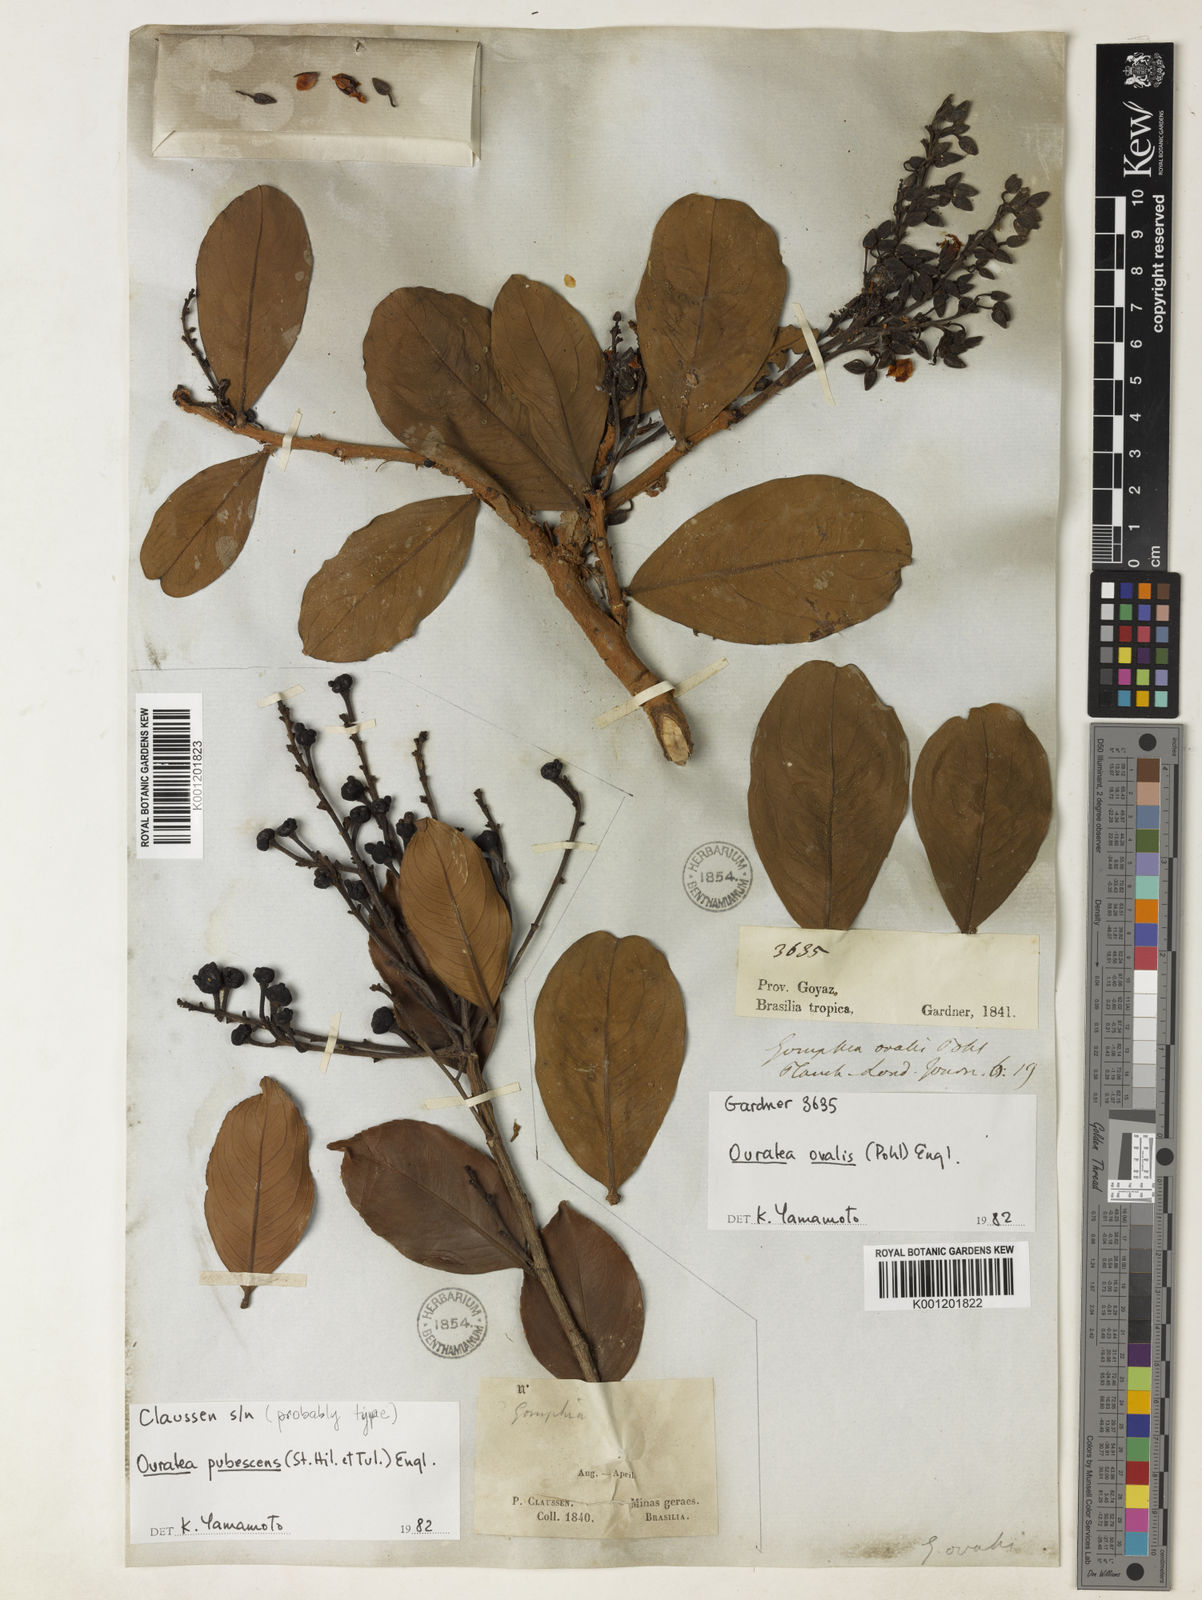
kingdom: Plantae
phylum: Tracheophyta
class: Magnoliopsida
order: Malpighiales
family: Ochnaceae
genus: Ouratea
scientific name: Ouratea
